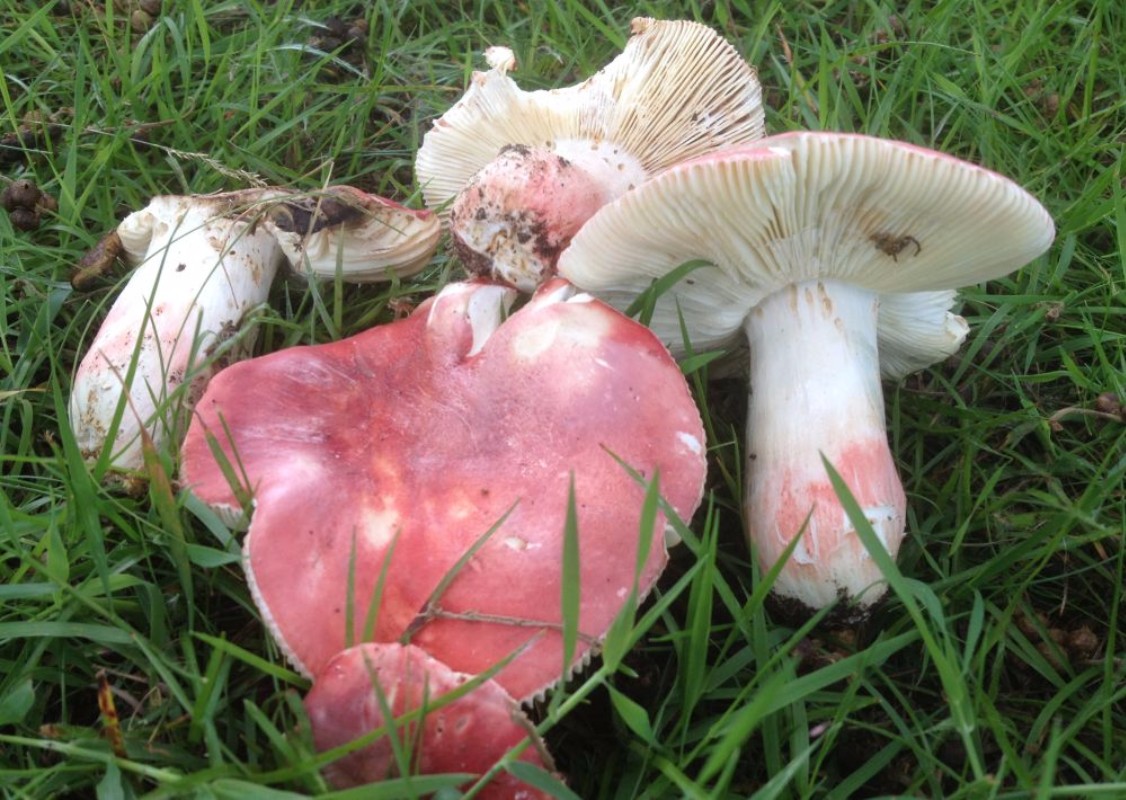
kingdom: Fungi
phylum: Basidiomycota
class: Agaricomycetes
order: Russulales
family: Russulaceae
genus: Russula
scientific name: Russula rosea
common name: fastkødet skørhat
